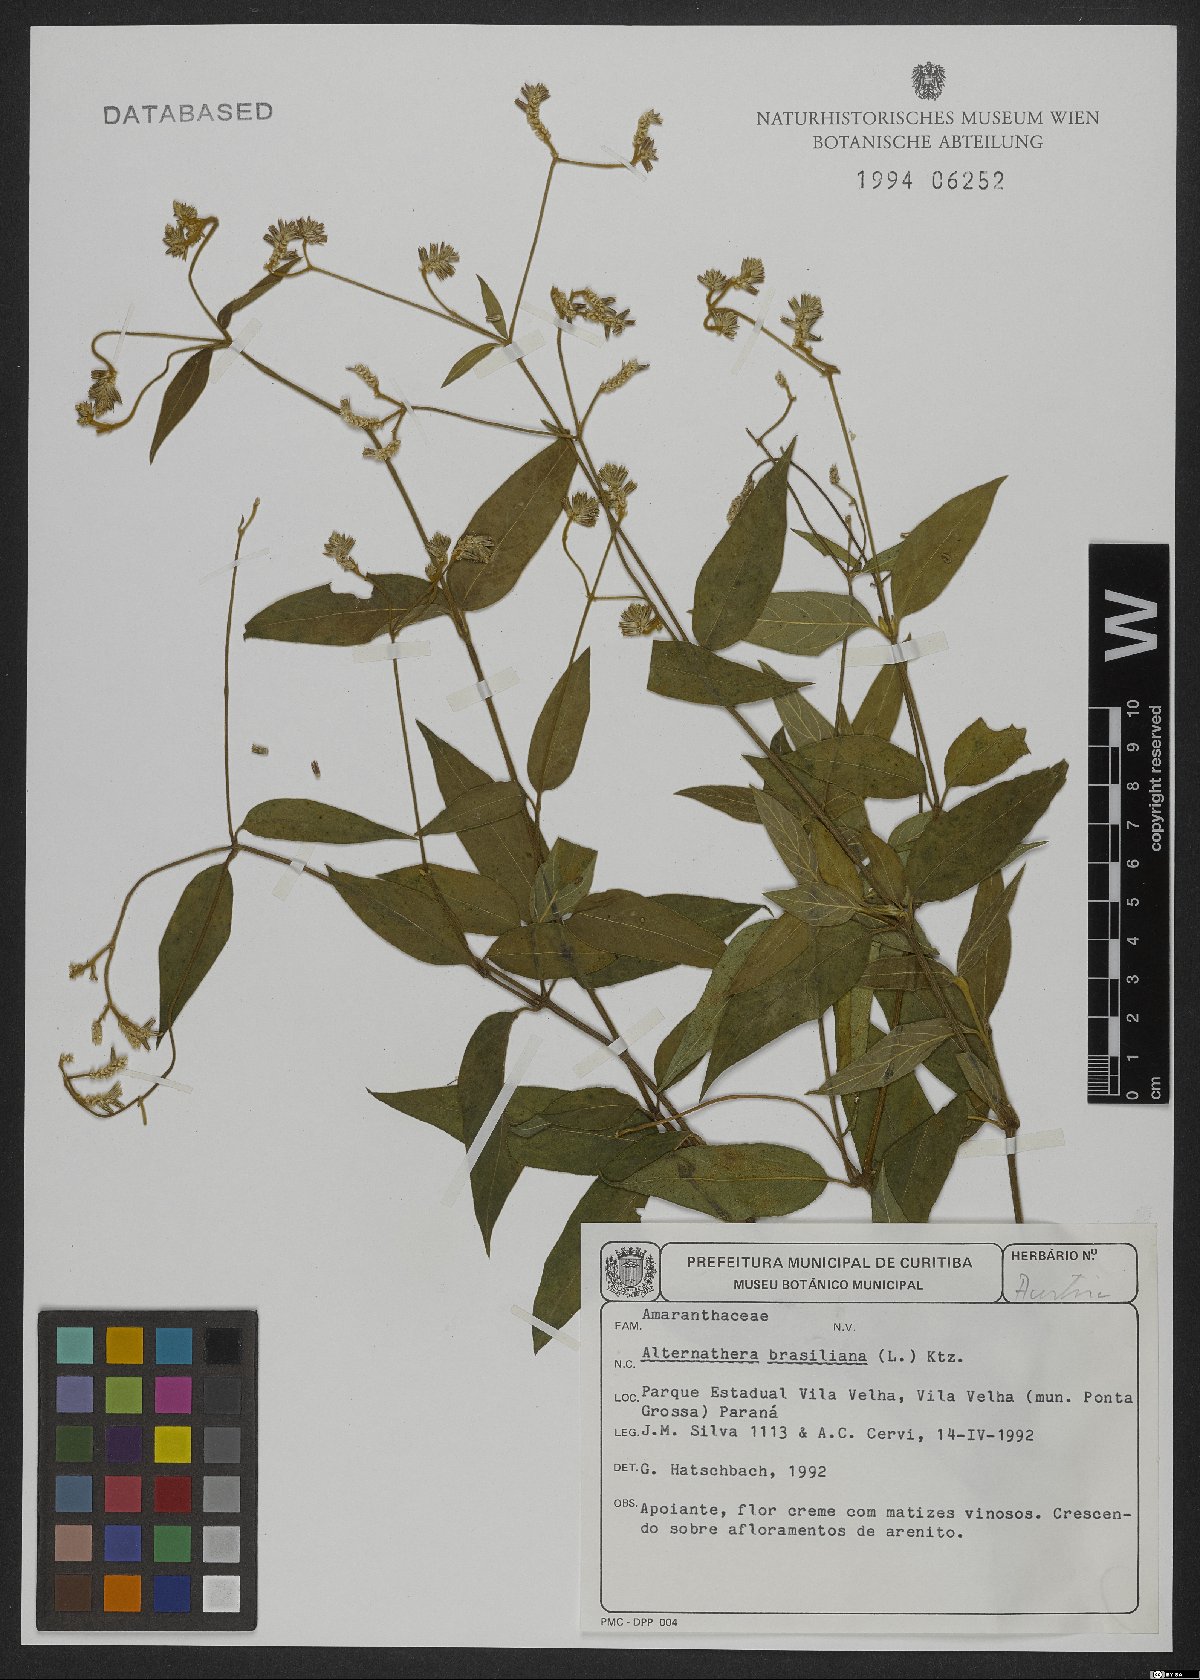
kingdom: Plantae
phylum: Tracheophyta
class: Magnoliopsida
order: Caryophyllales
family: Amaranthaceae
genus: Alternanthera
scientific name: Alternanthera brasiliana
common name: Brazilian joyweed
